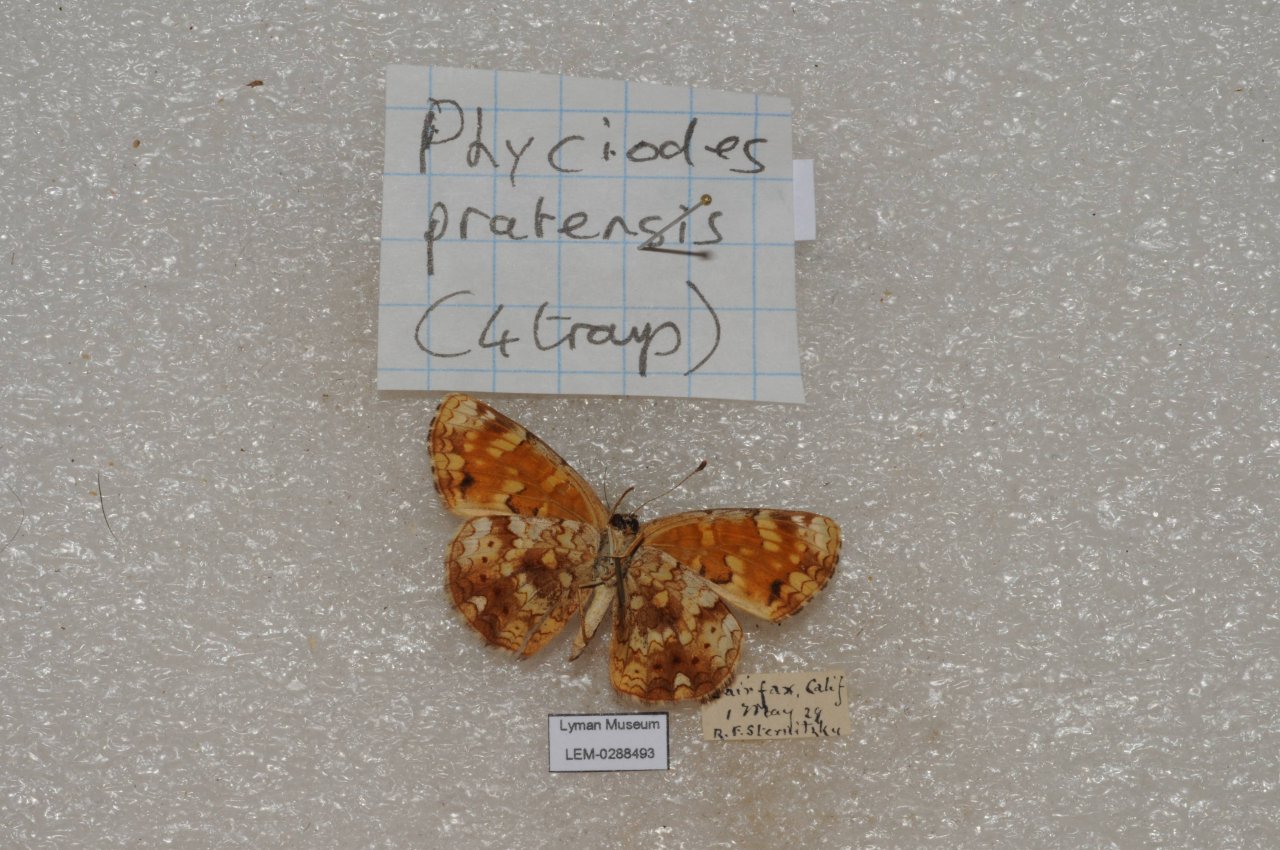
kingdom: Animalia
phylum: Arthropoda
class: Insecta
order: Lepidoptera
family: Nymphalidae
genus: Phyciodes
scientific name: Phyciodes
